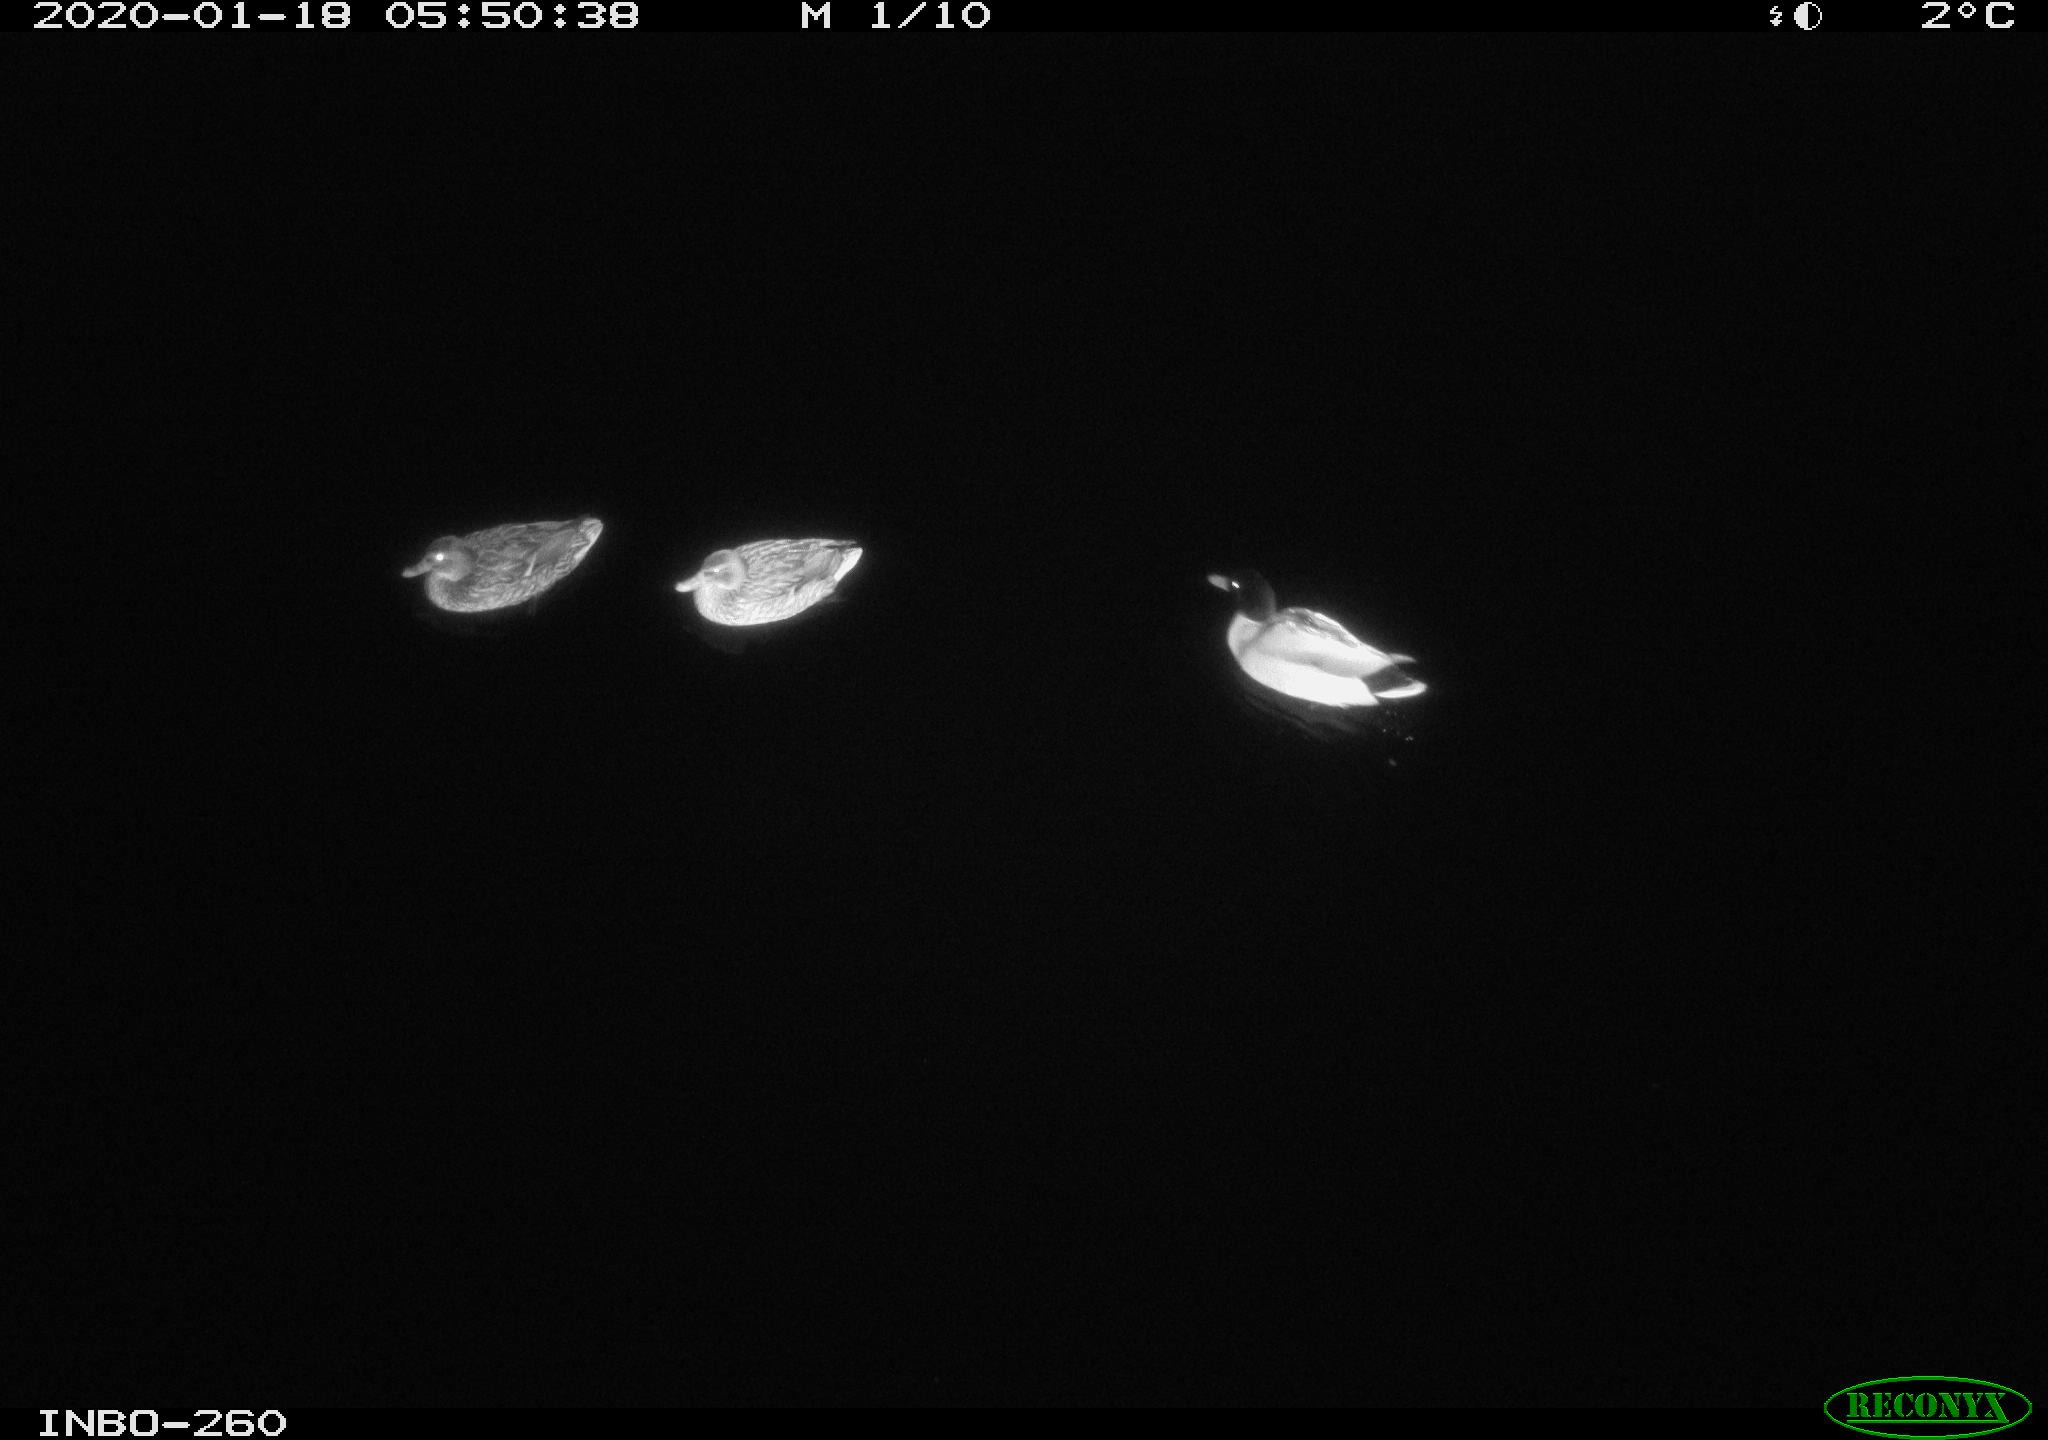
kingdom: Animalia
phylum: Chordata
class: Aves
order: Anseriformes
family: Anatidae
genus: Anas
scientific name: Anas platyrhynchos
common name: Mallard
